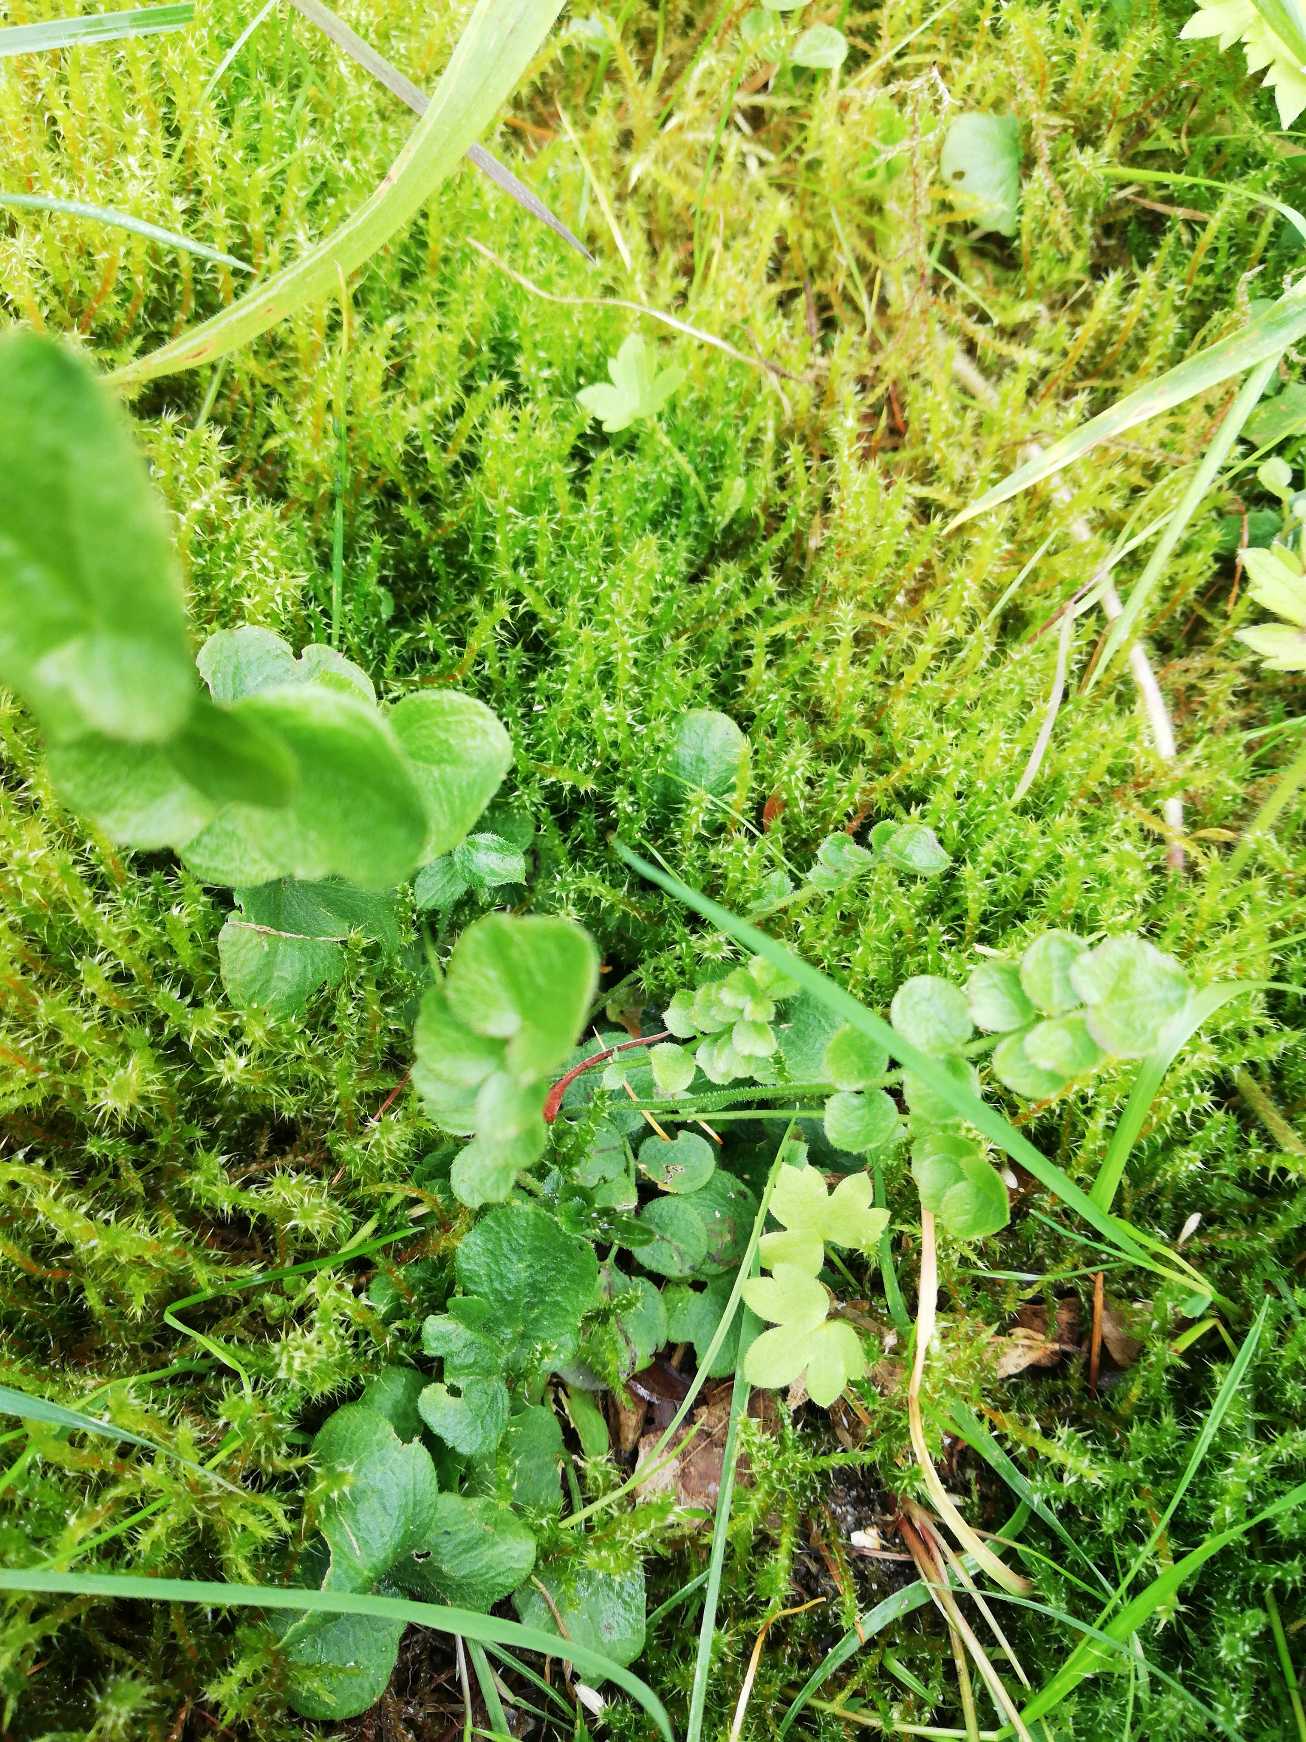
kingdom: Plantae
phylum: Tracheophyta
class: Magnoliopsida
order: Brassicales
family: Brassicaceae
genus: Cardamine
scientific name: Cardamine pratensis
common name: Engkarse
